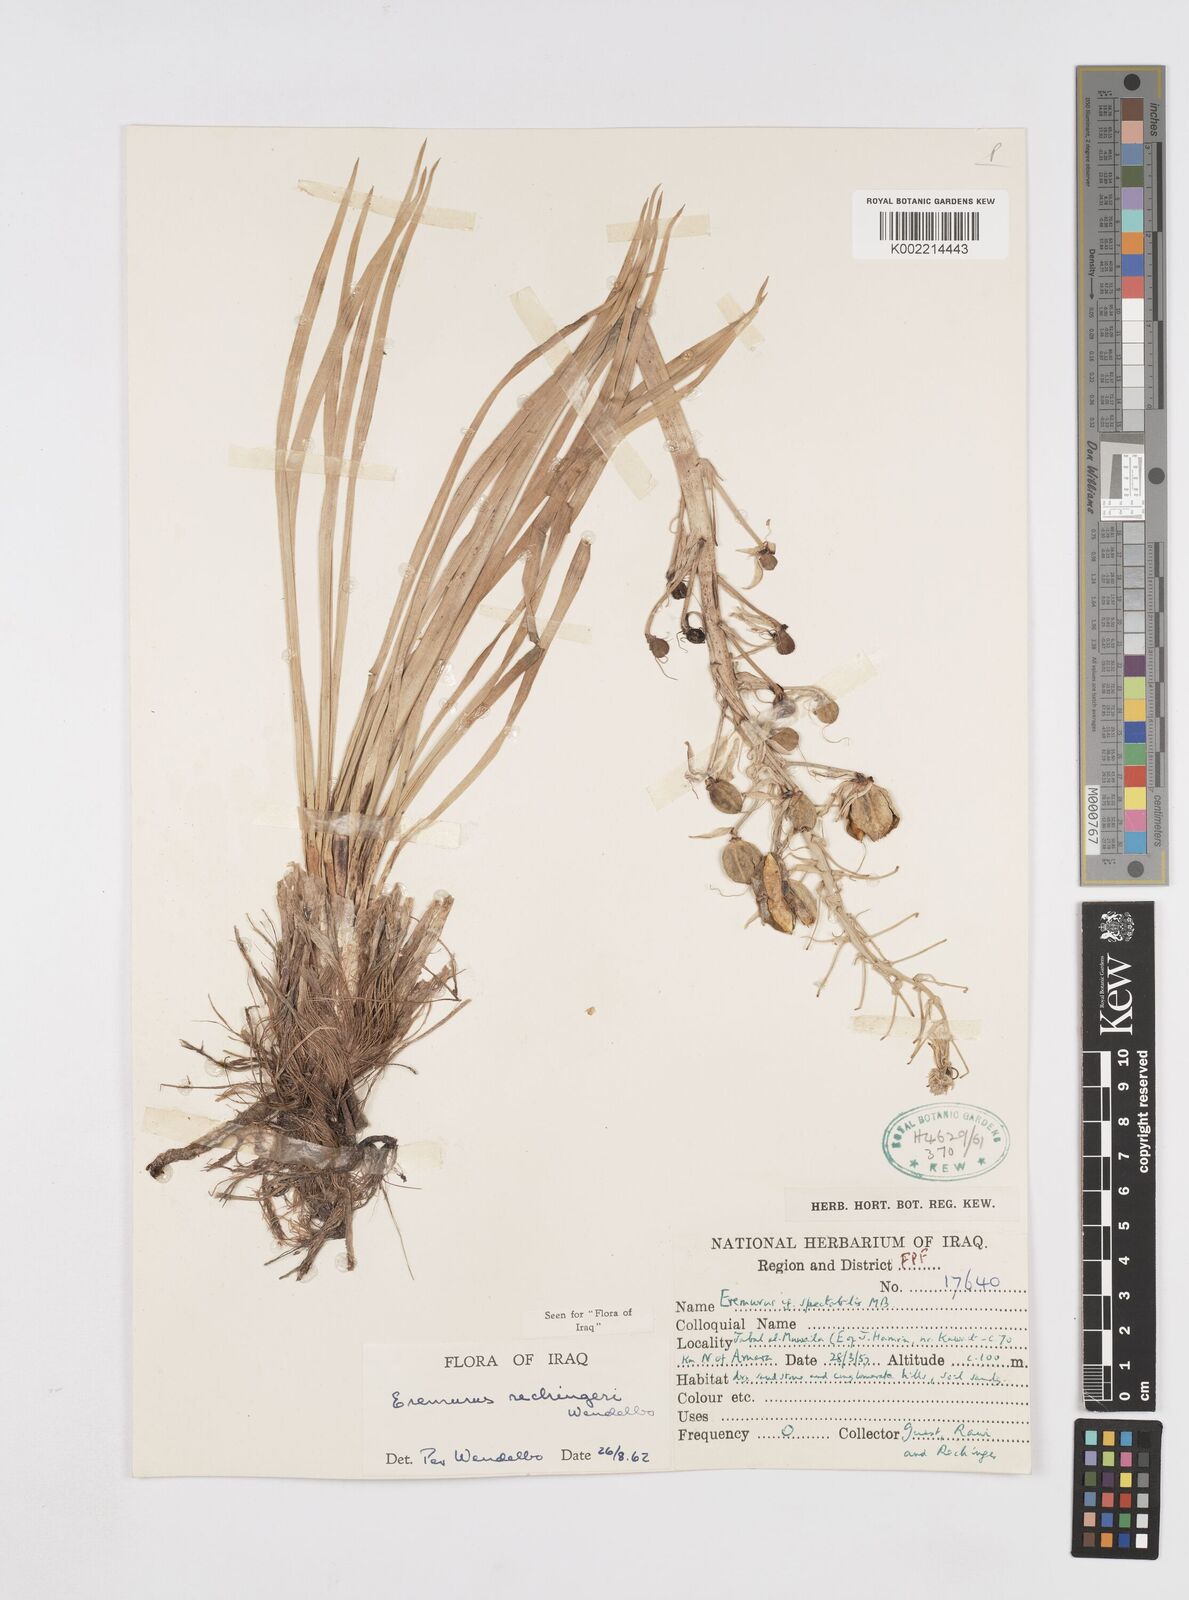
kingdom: Plantae
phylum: Tracheophyta
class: Liliopsida
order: Asparagales
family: Asphodelaceae
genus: Eremurus
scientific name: Eremurus rechingeri
